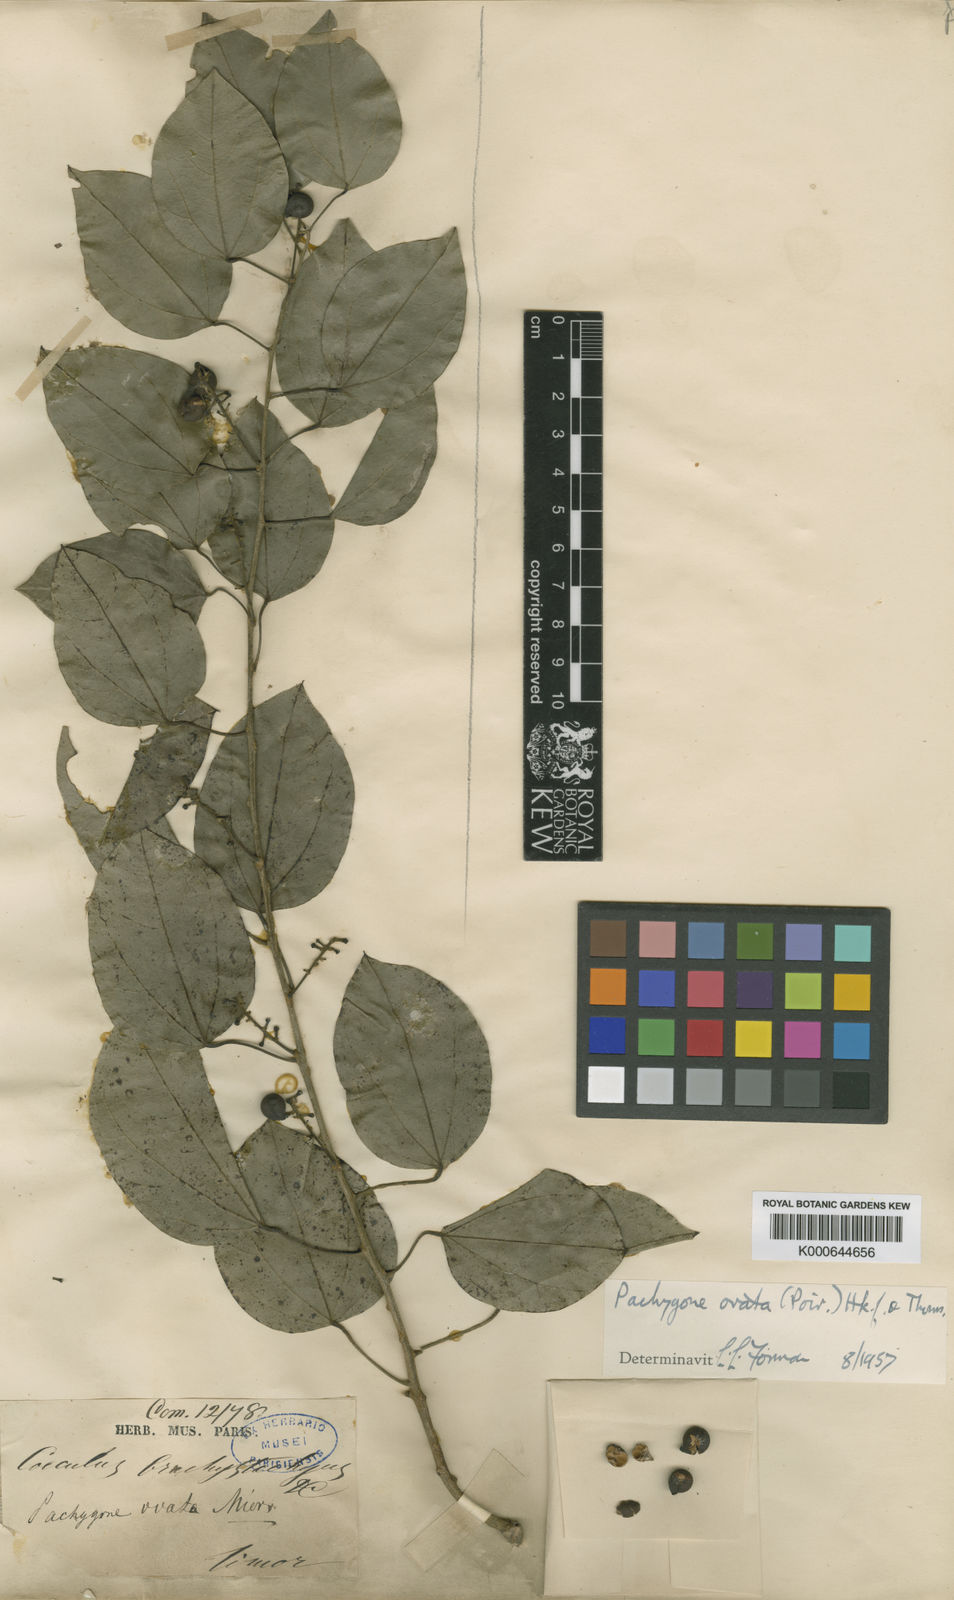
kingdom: Plantae
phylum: Tracheophyta
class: Magnoliopsida
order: Ranunculales
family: Menispermaceae
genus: Pachygone
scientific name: Pachygone ovata
